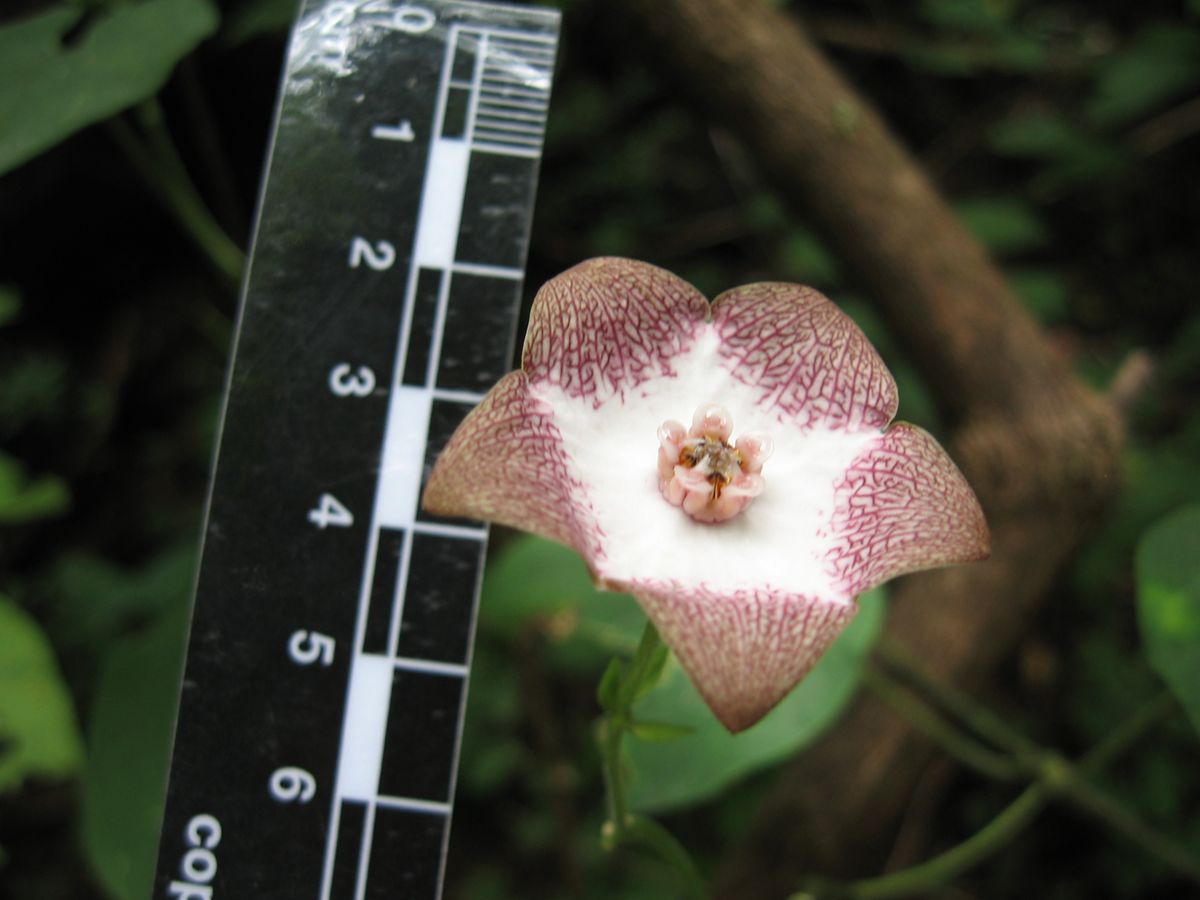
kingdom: Plantae
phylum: Tracheophyta
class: Magnoliopsida
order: Gentianales
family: Apocynaceae
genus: Polystemma
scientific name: Polystemma guatemalense
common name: Arborescente rattan
